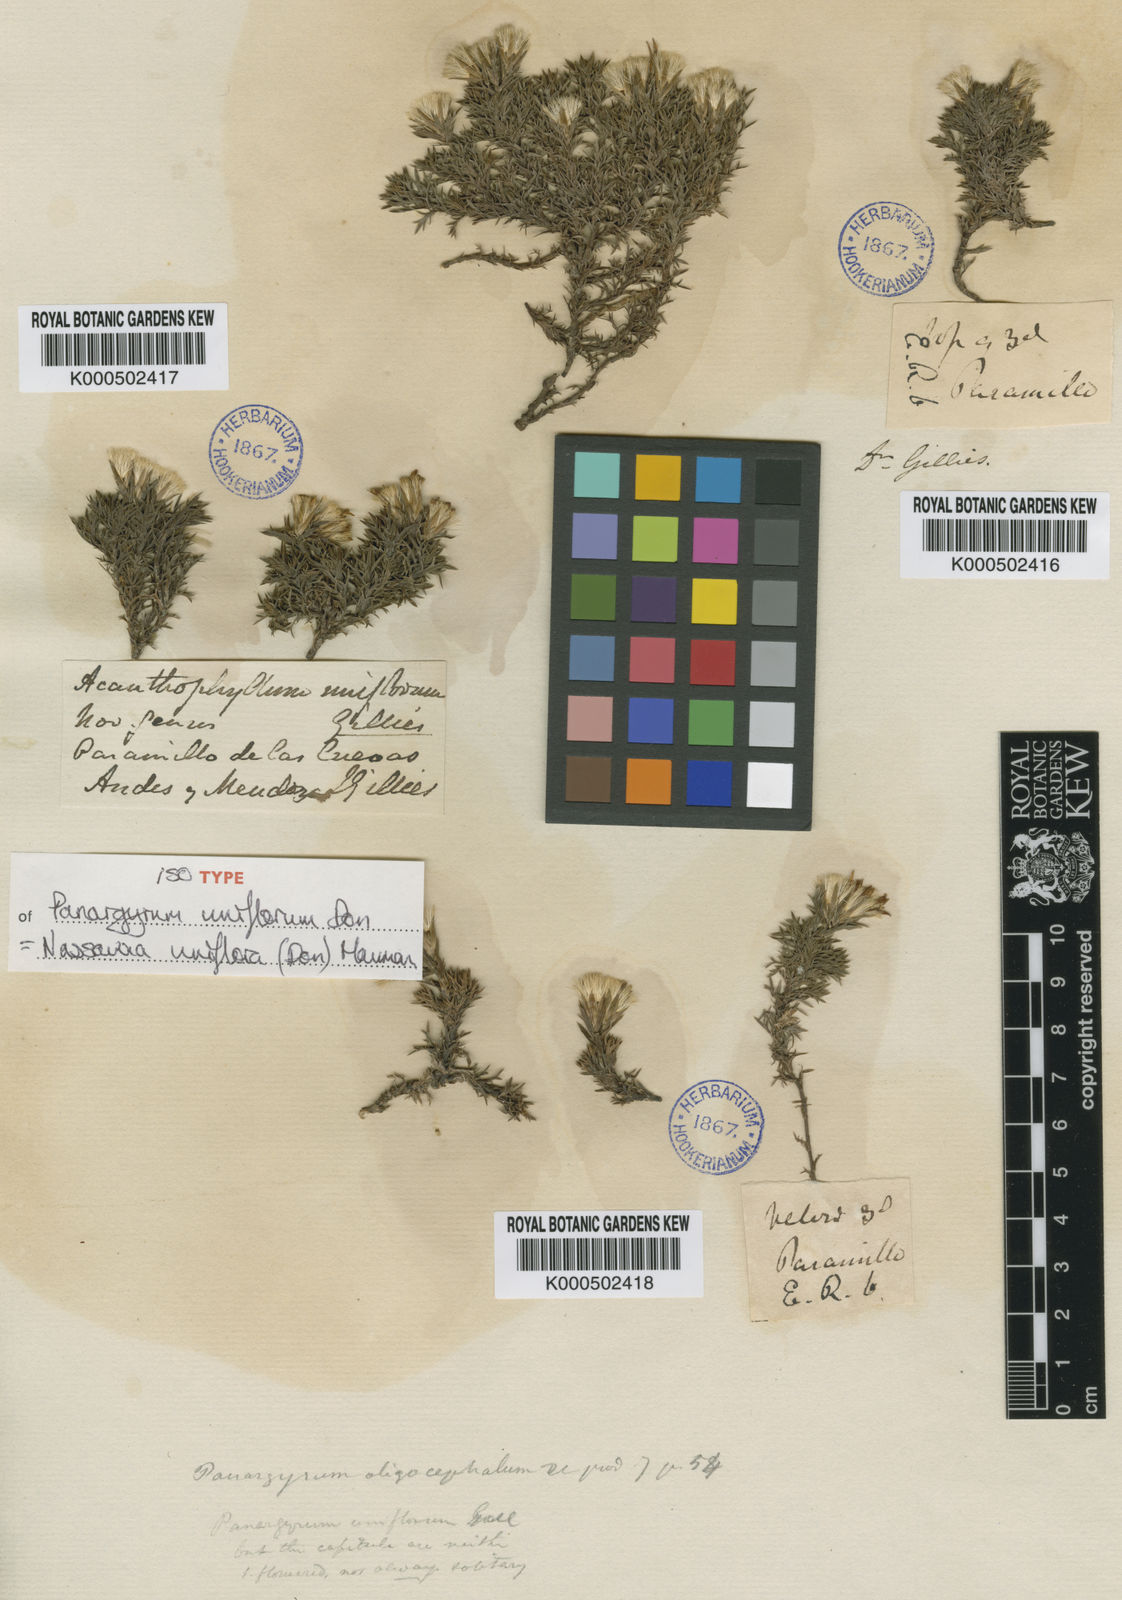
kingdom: Plantae
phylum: Tracheophyta
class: Magnoliopsida
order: Asterales
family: Asteraceae
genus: Nassauvia
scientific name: Nassauvia uniflora
